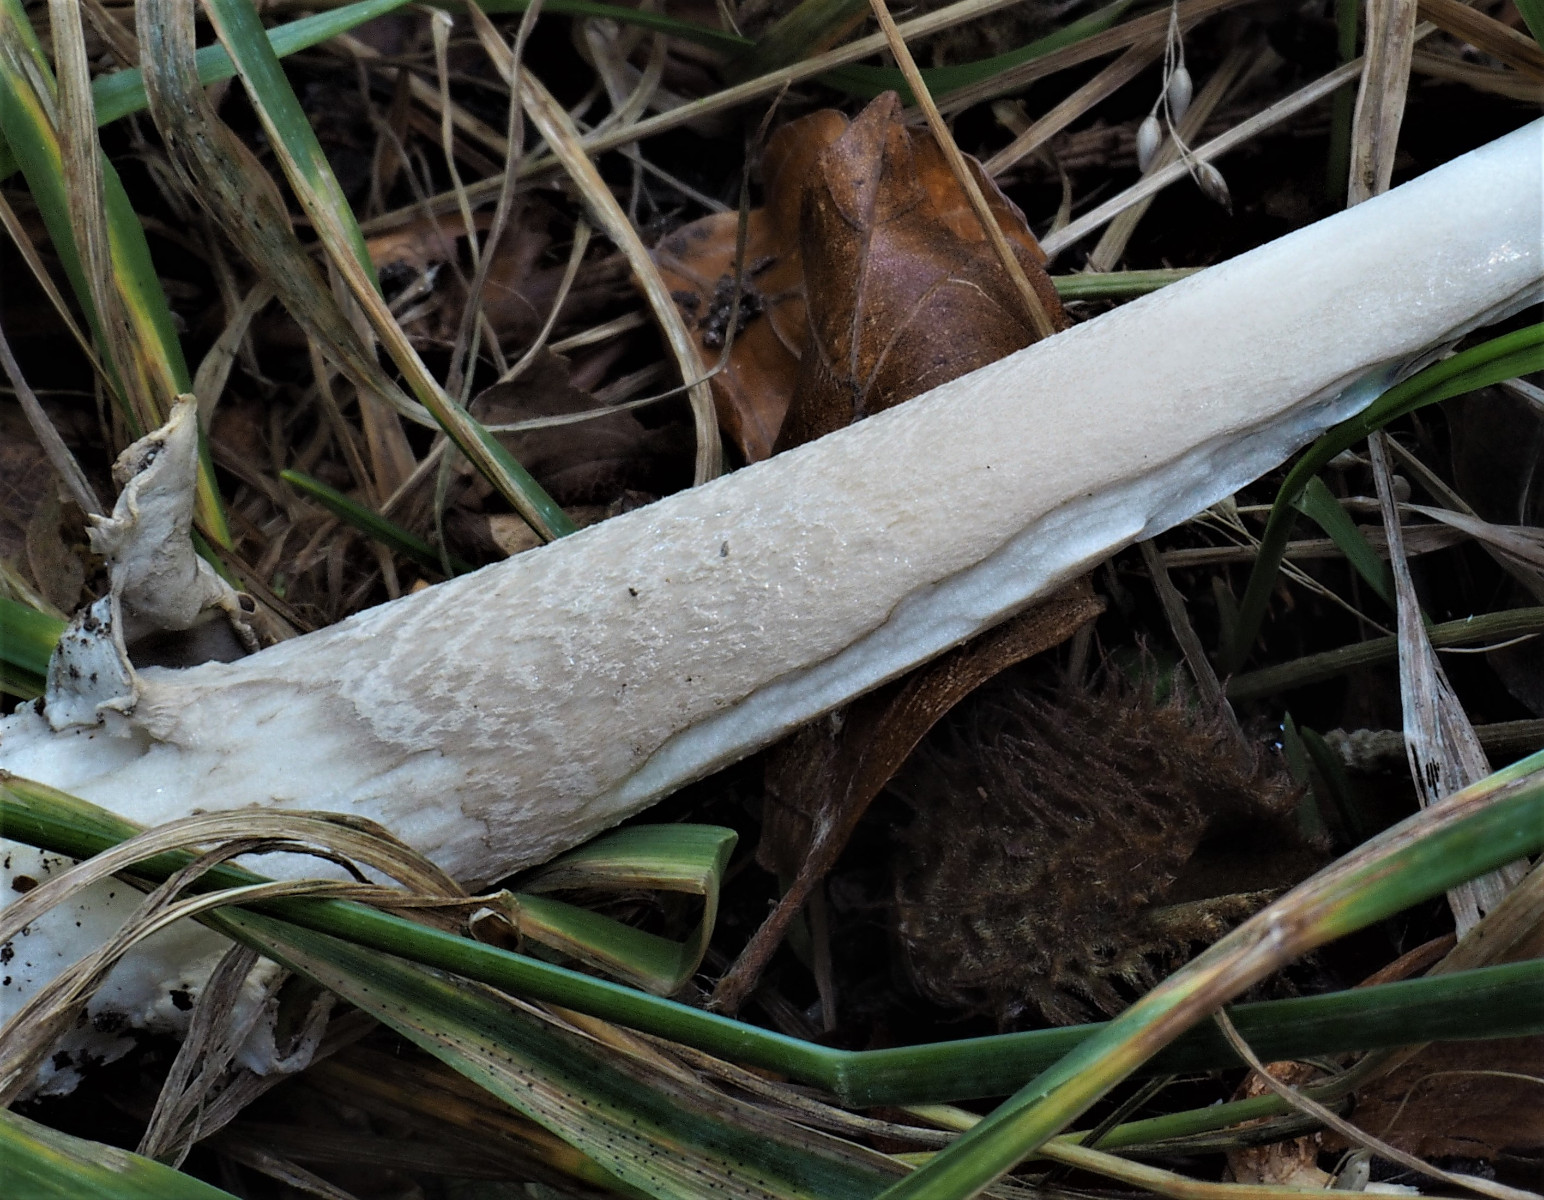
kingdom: Fungi
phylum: Basidiomycota
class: Agaricomycetes
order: Agaricales
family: Amanitaceae
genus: Amanita
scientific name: Amanita submembranacea
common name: gråspættet kam-fluesvamp
